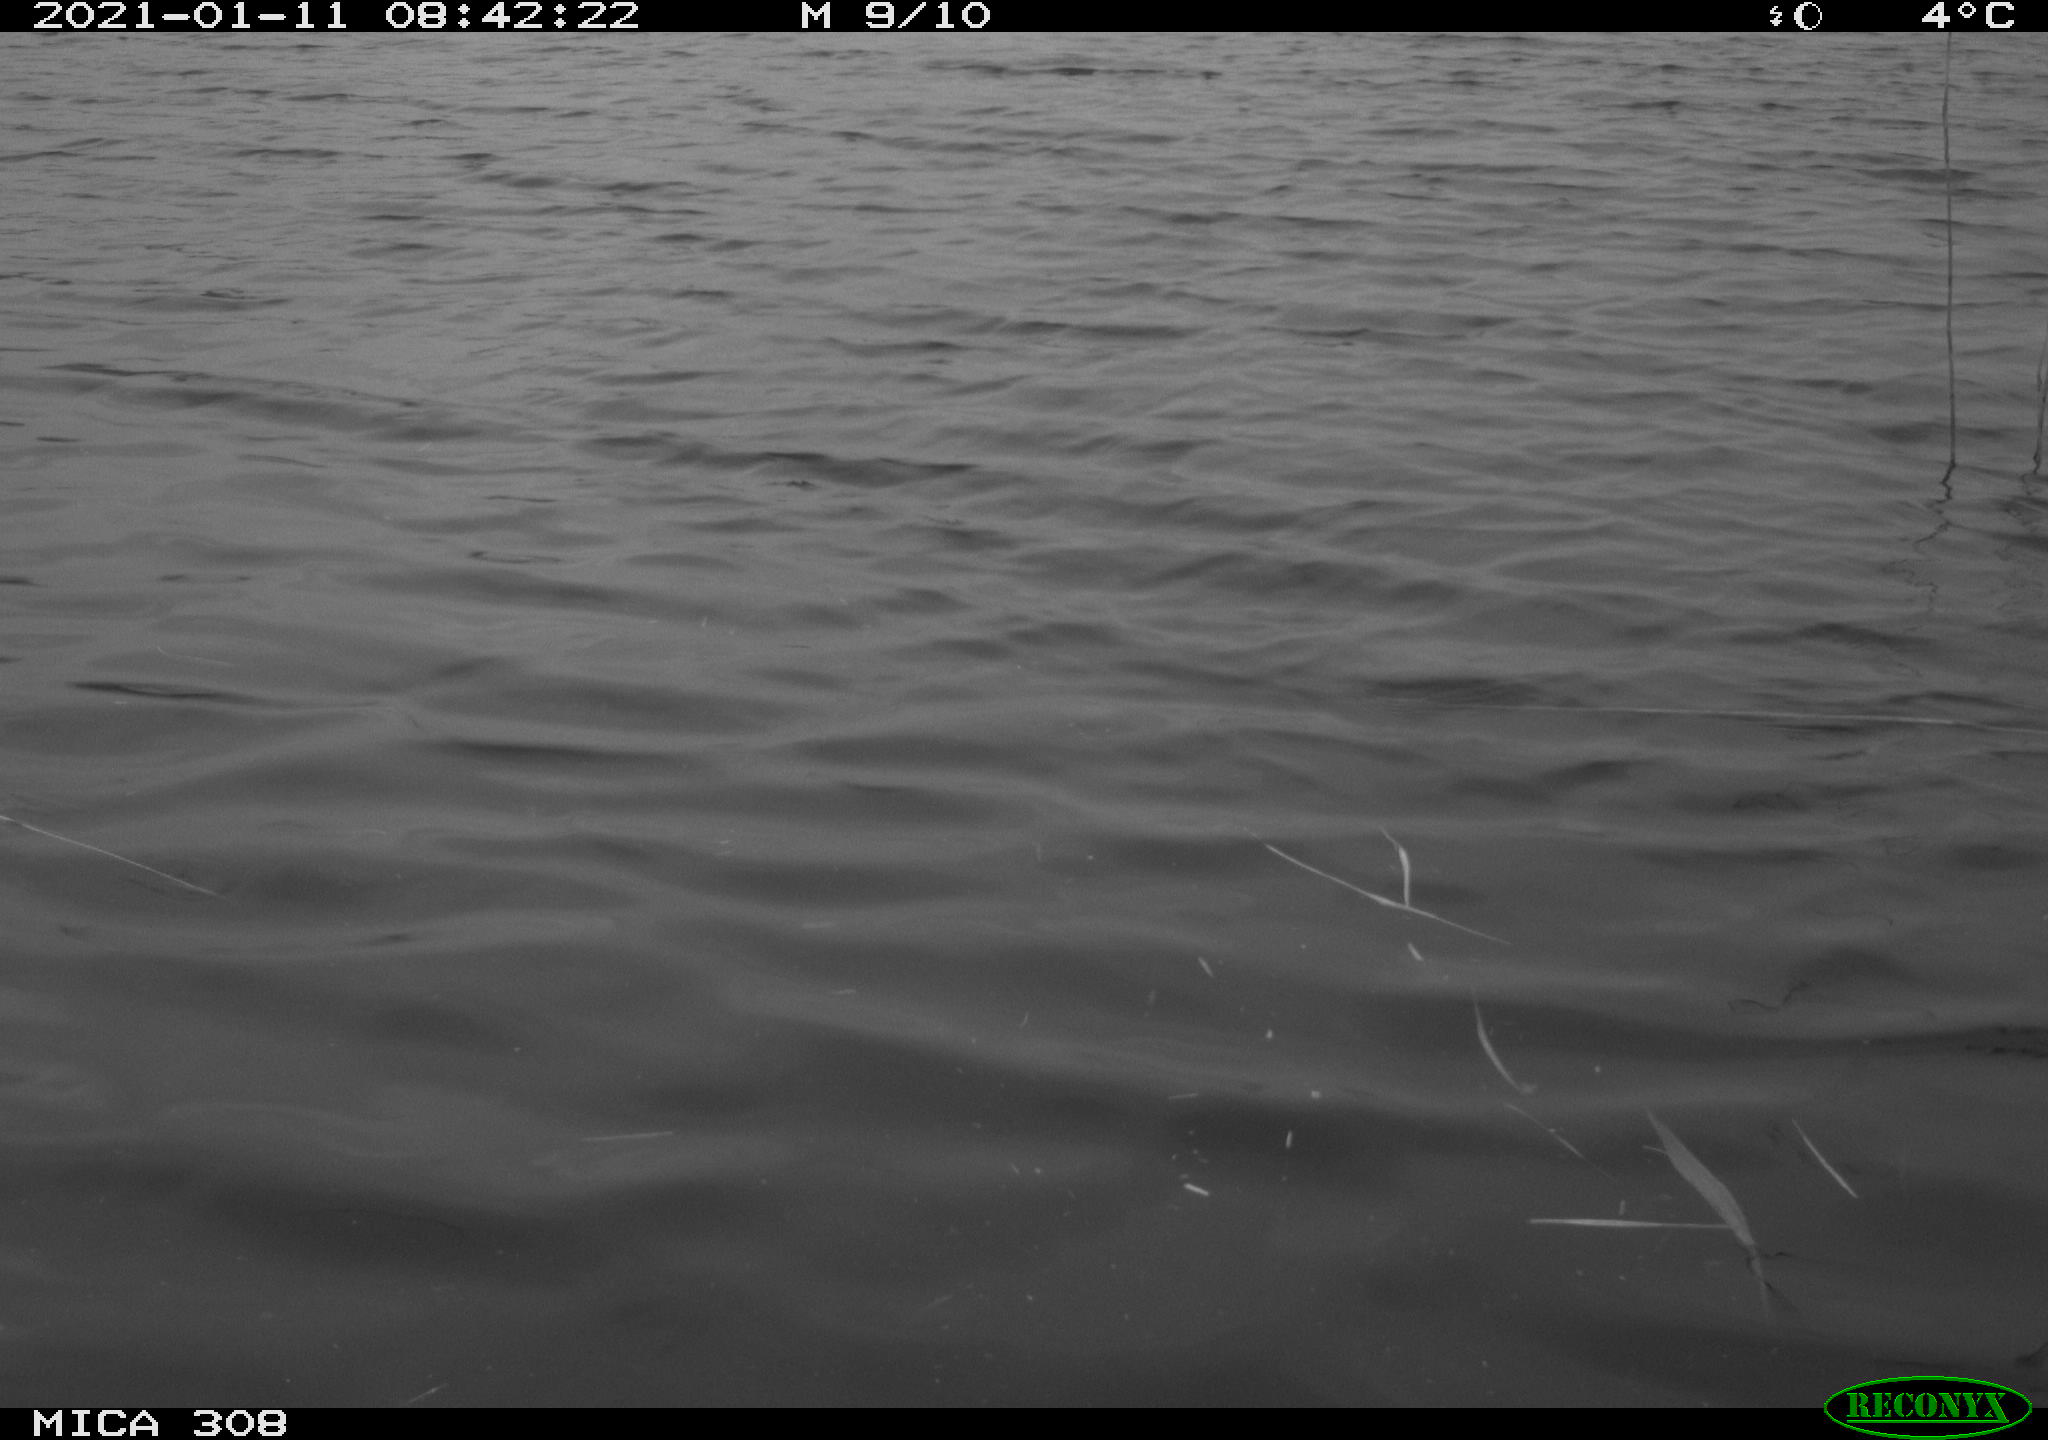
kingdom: Animalia
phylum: Chordata
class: Aves
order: Gruiformes
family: Rallidae
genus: Gallinula
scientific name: Gallinula chloropus
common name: Common moorhen
